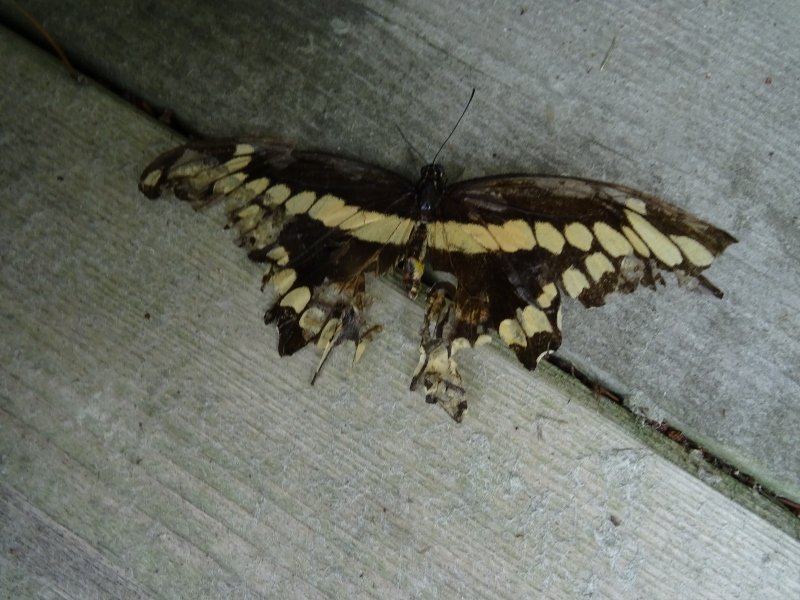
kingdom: Animalia
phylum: Arthropoda
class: Insecta
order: Lepidoptera
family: Papilionidae
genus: Papilio
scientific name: Papilio cresphontes
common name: Eastern Giant Swallowtail
